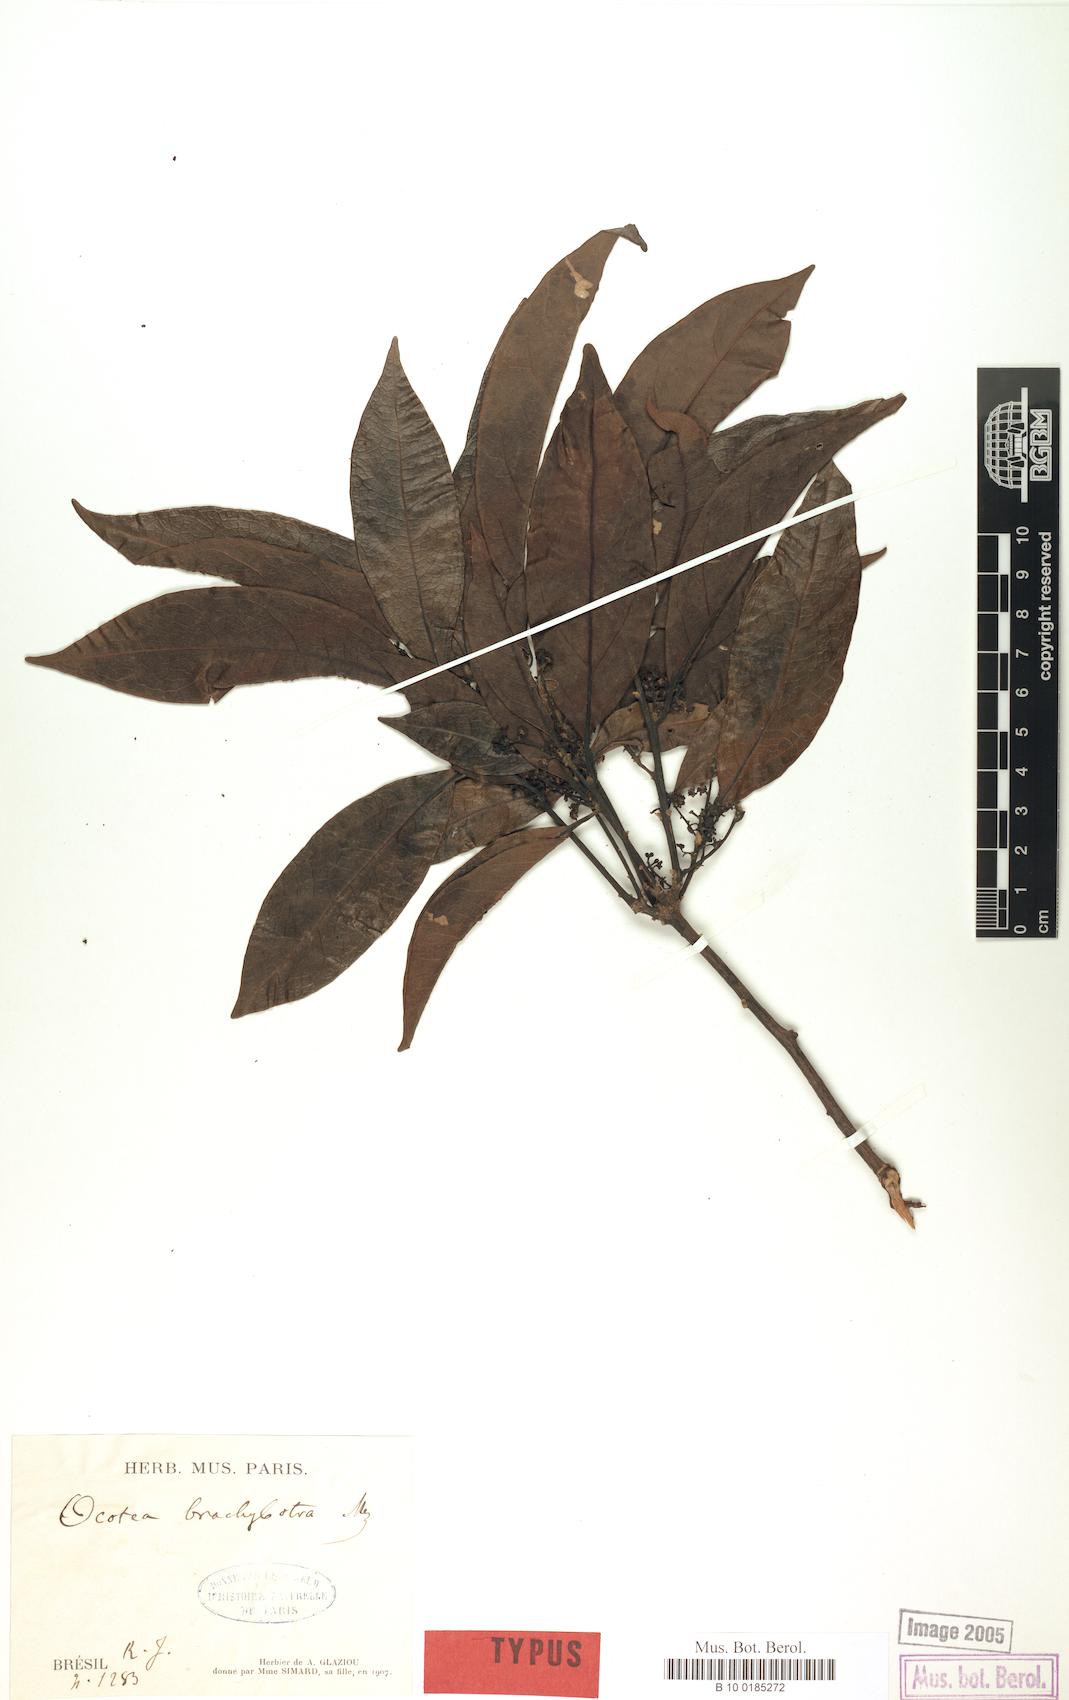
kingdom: Plantae
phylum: Tracheophyta
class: Magnoliopsida
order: Laurales
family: Lauraceae
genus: Ocotea
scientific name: Ocotea brachybotra
